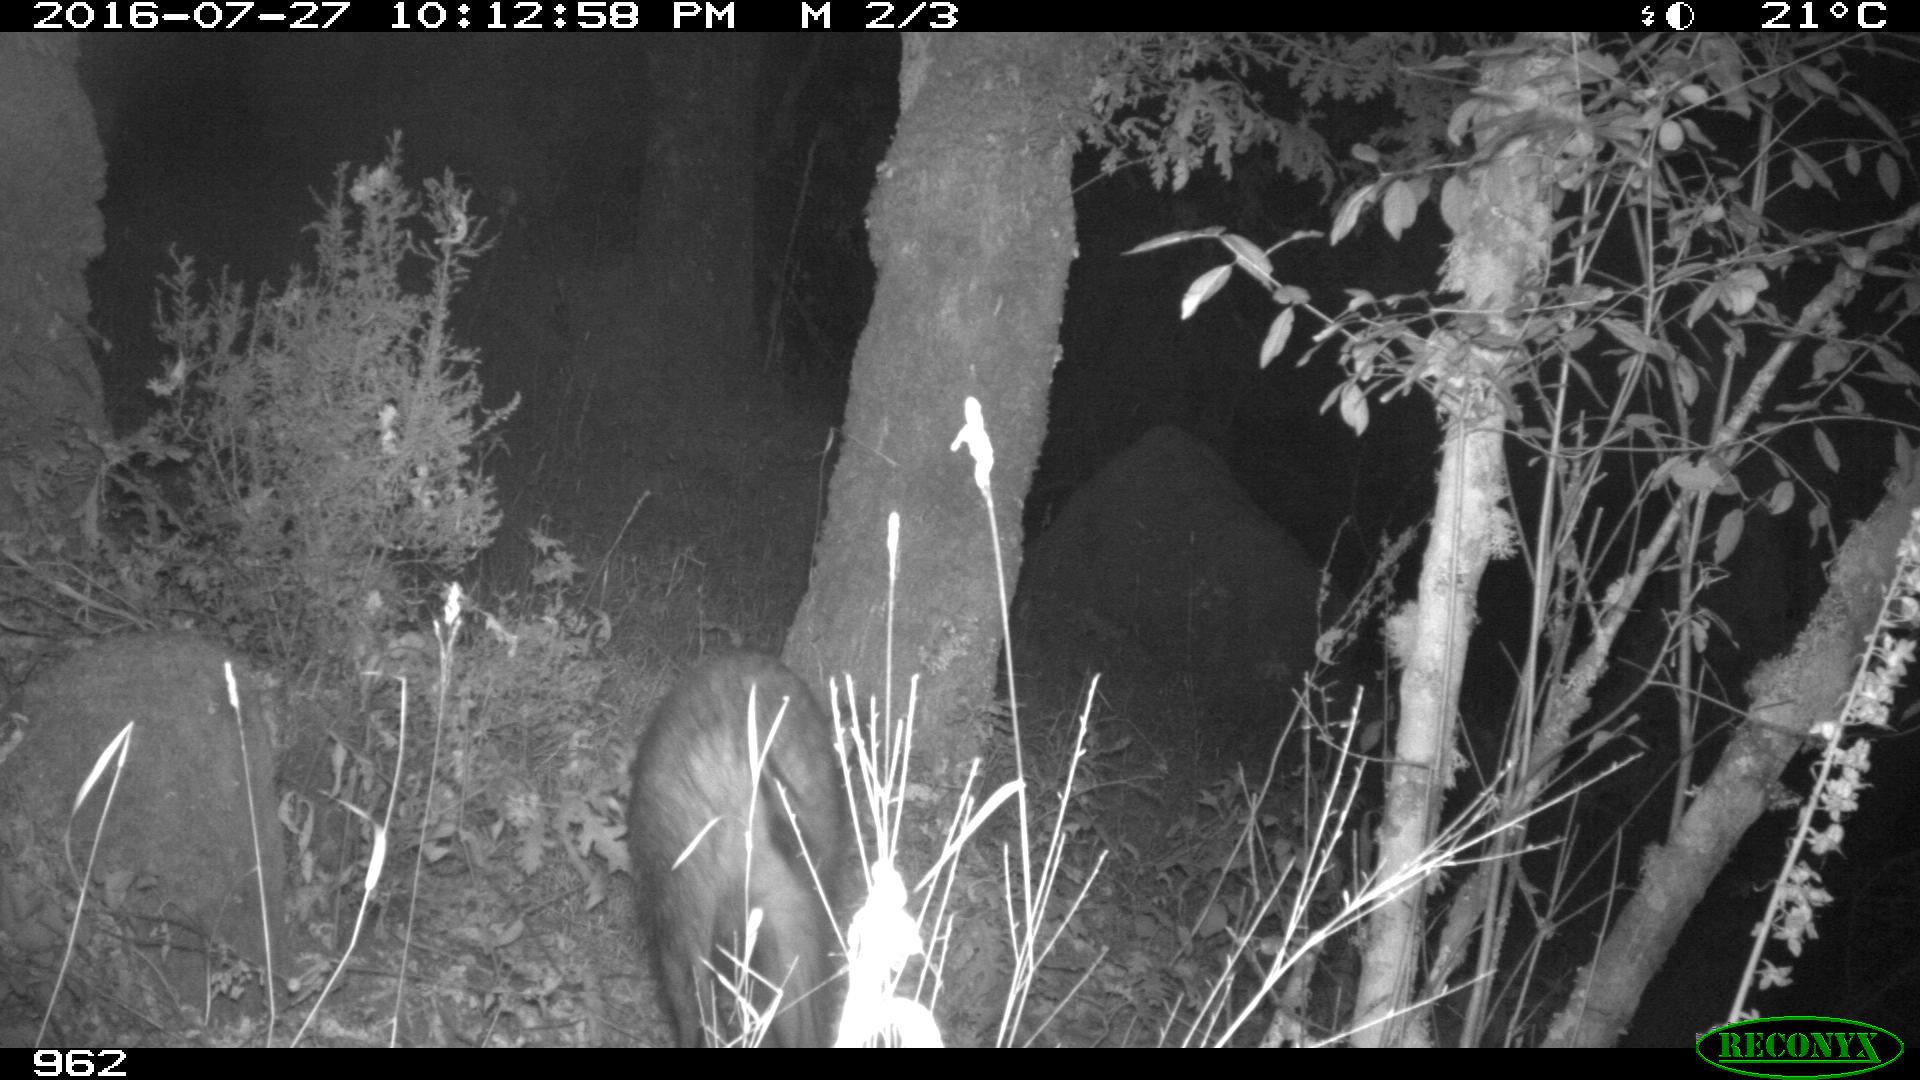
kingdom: Animalia
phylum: Chordata
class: Mammalia
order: Artiodactyla
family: Suidae
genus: Sus
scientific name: Sus scrofa
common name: Wild boar
